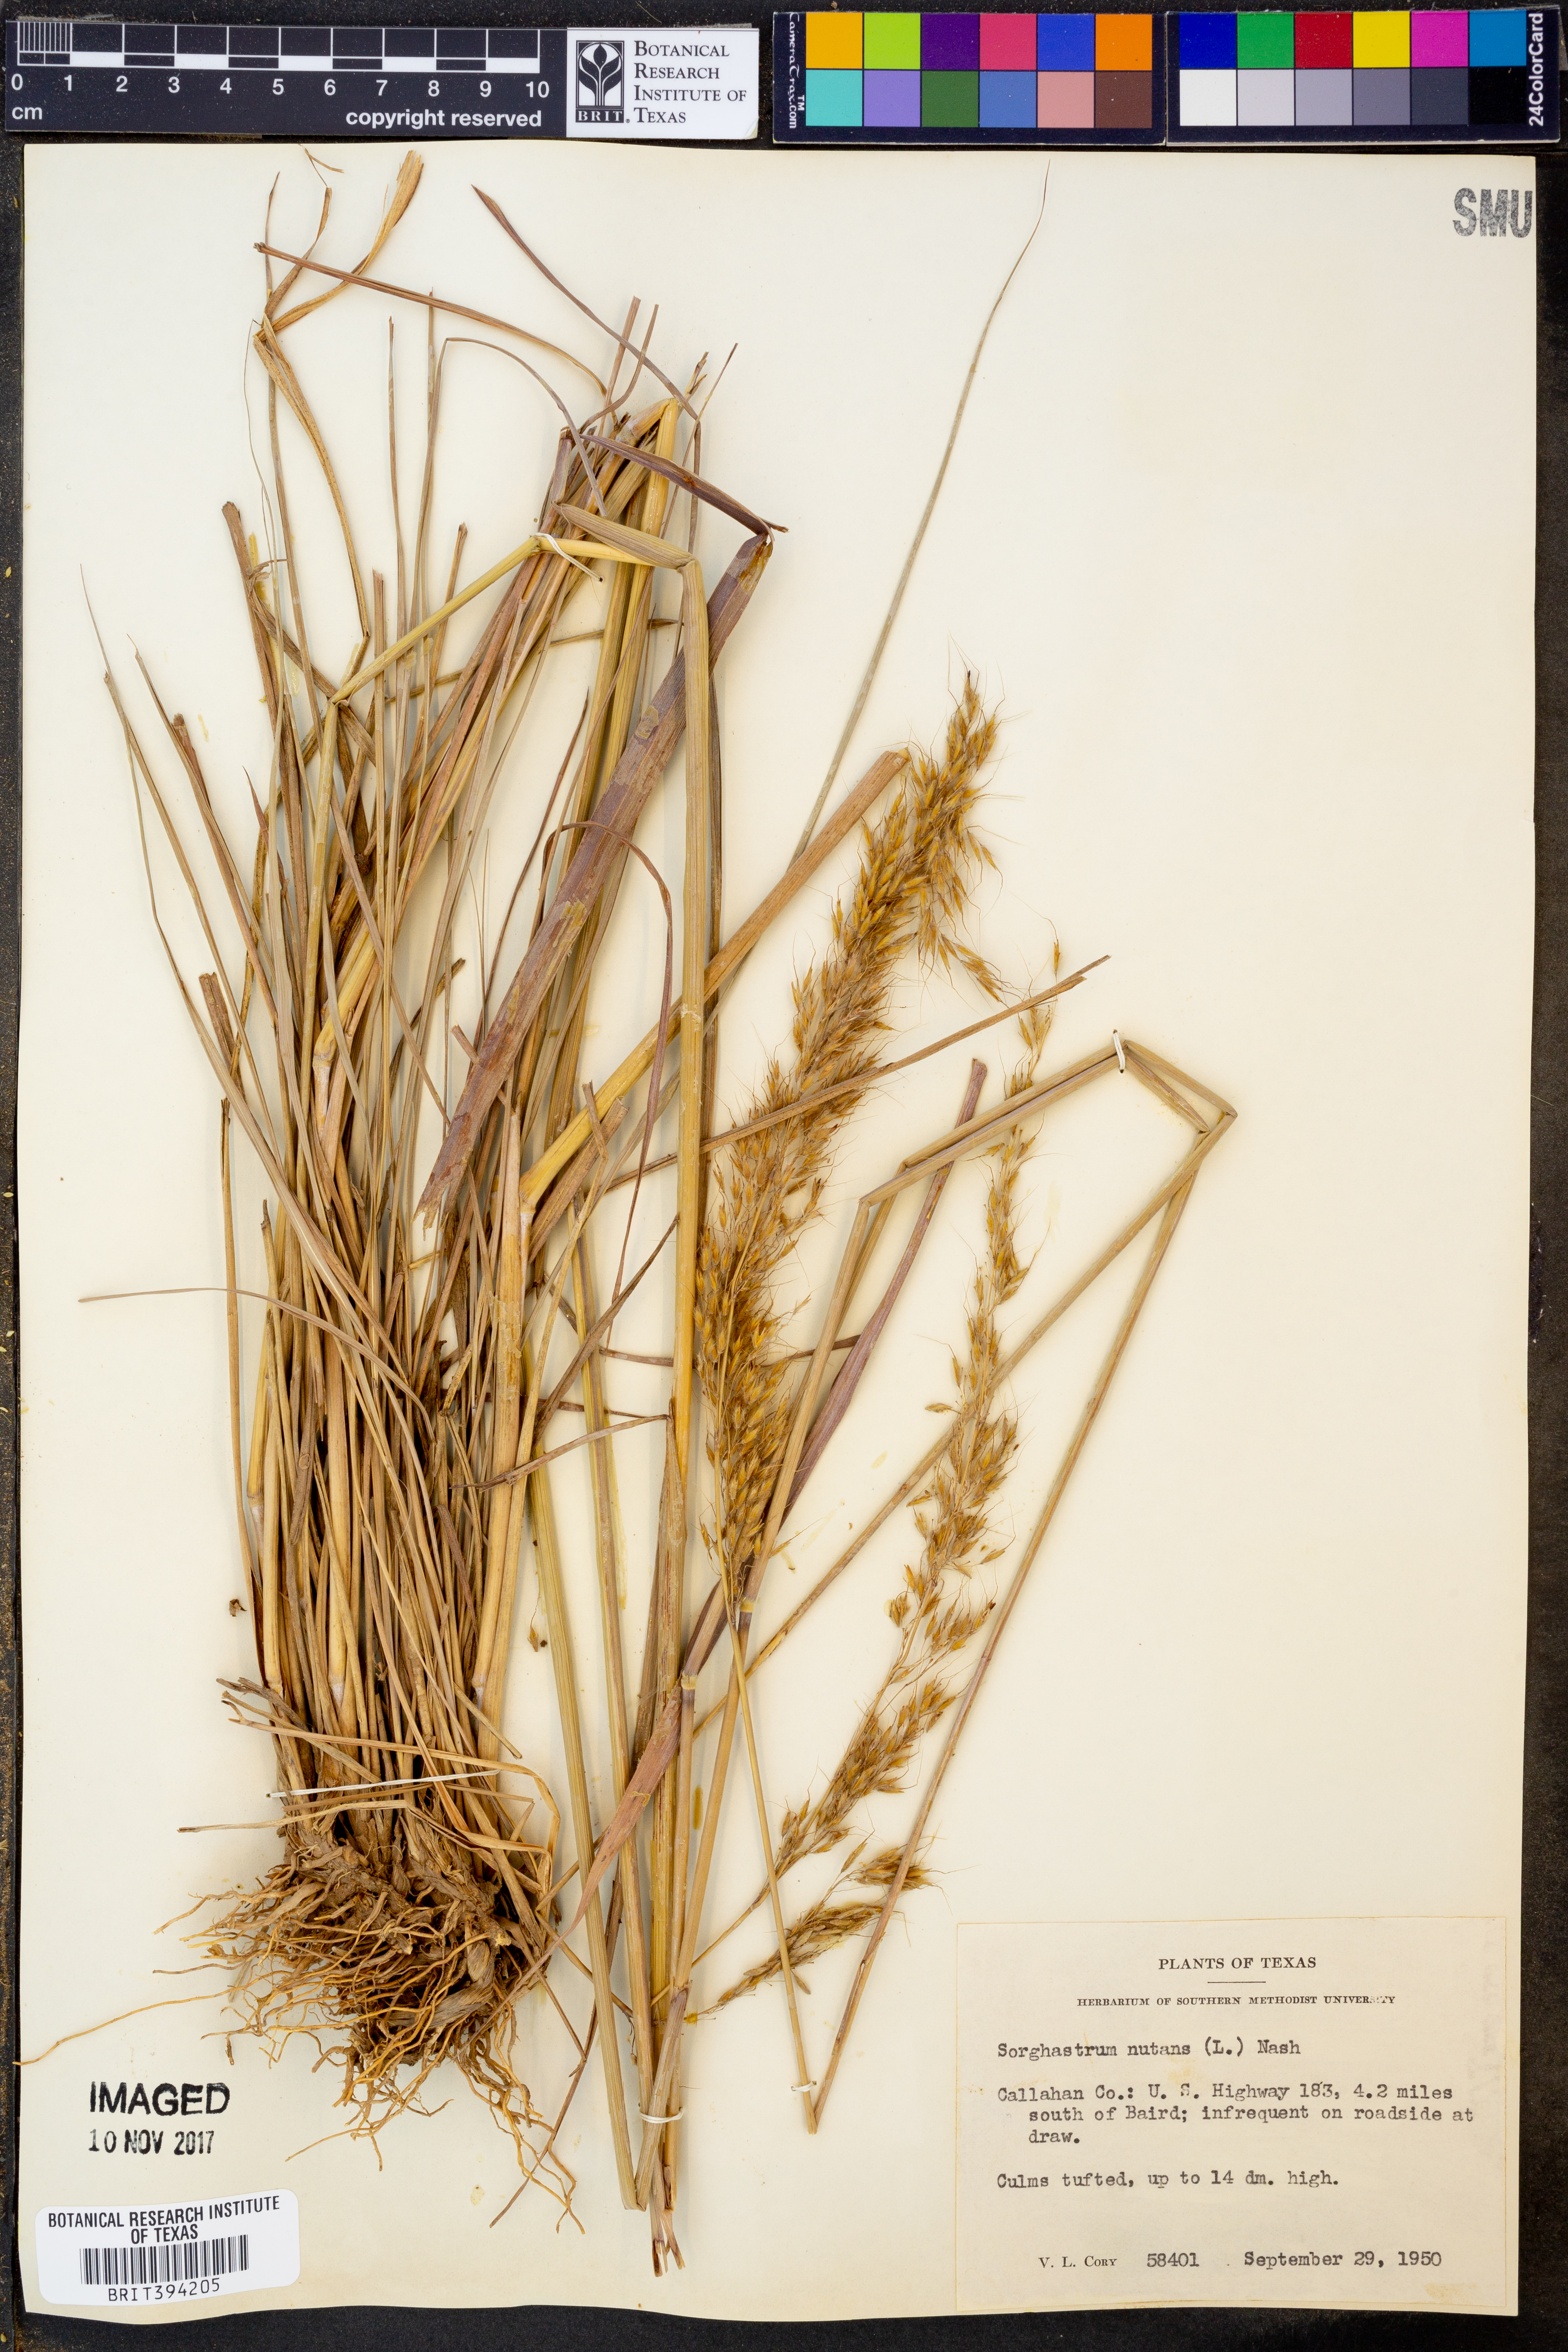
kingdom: Plantae
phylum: Tracheophyta
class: Liliopsida
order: Poales
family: Poaceae
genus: Sorghastrum
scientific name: Sorghastrum nutans
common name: Indian grass
